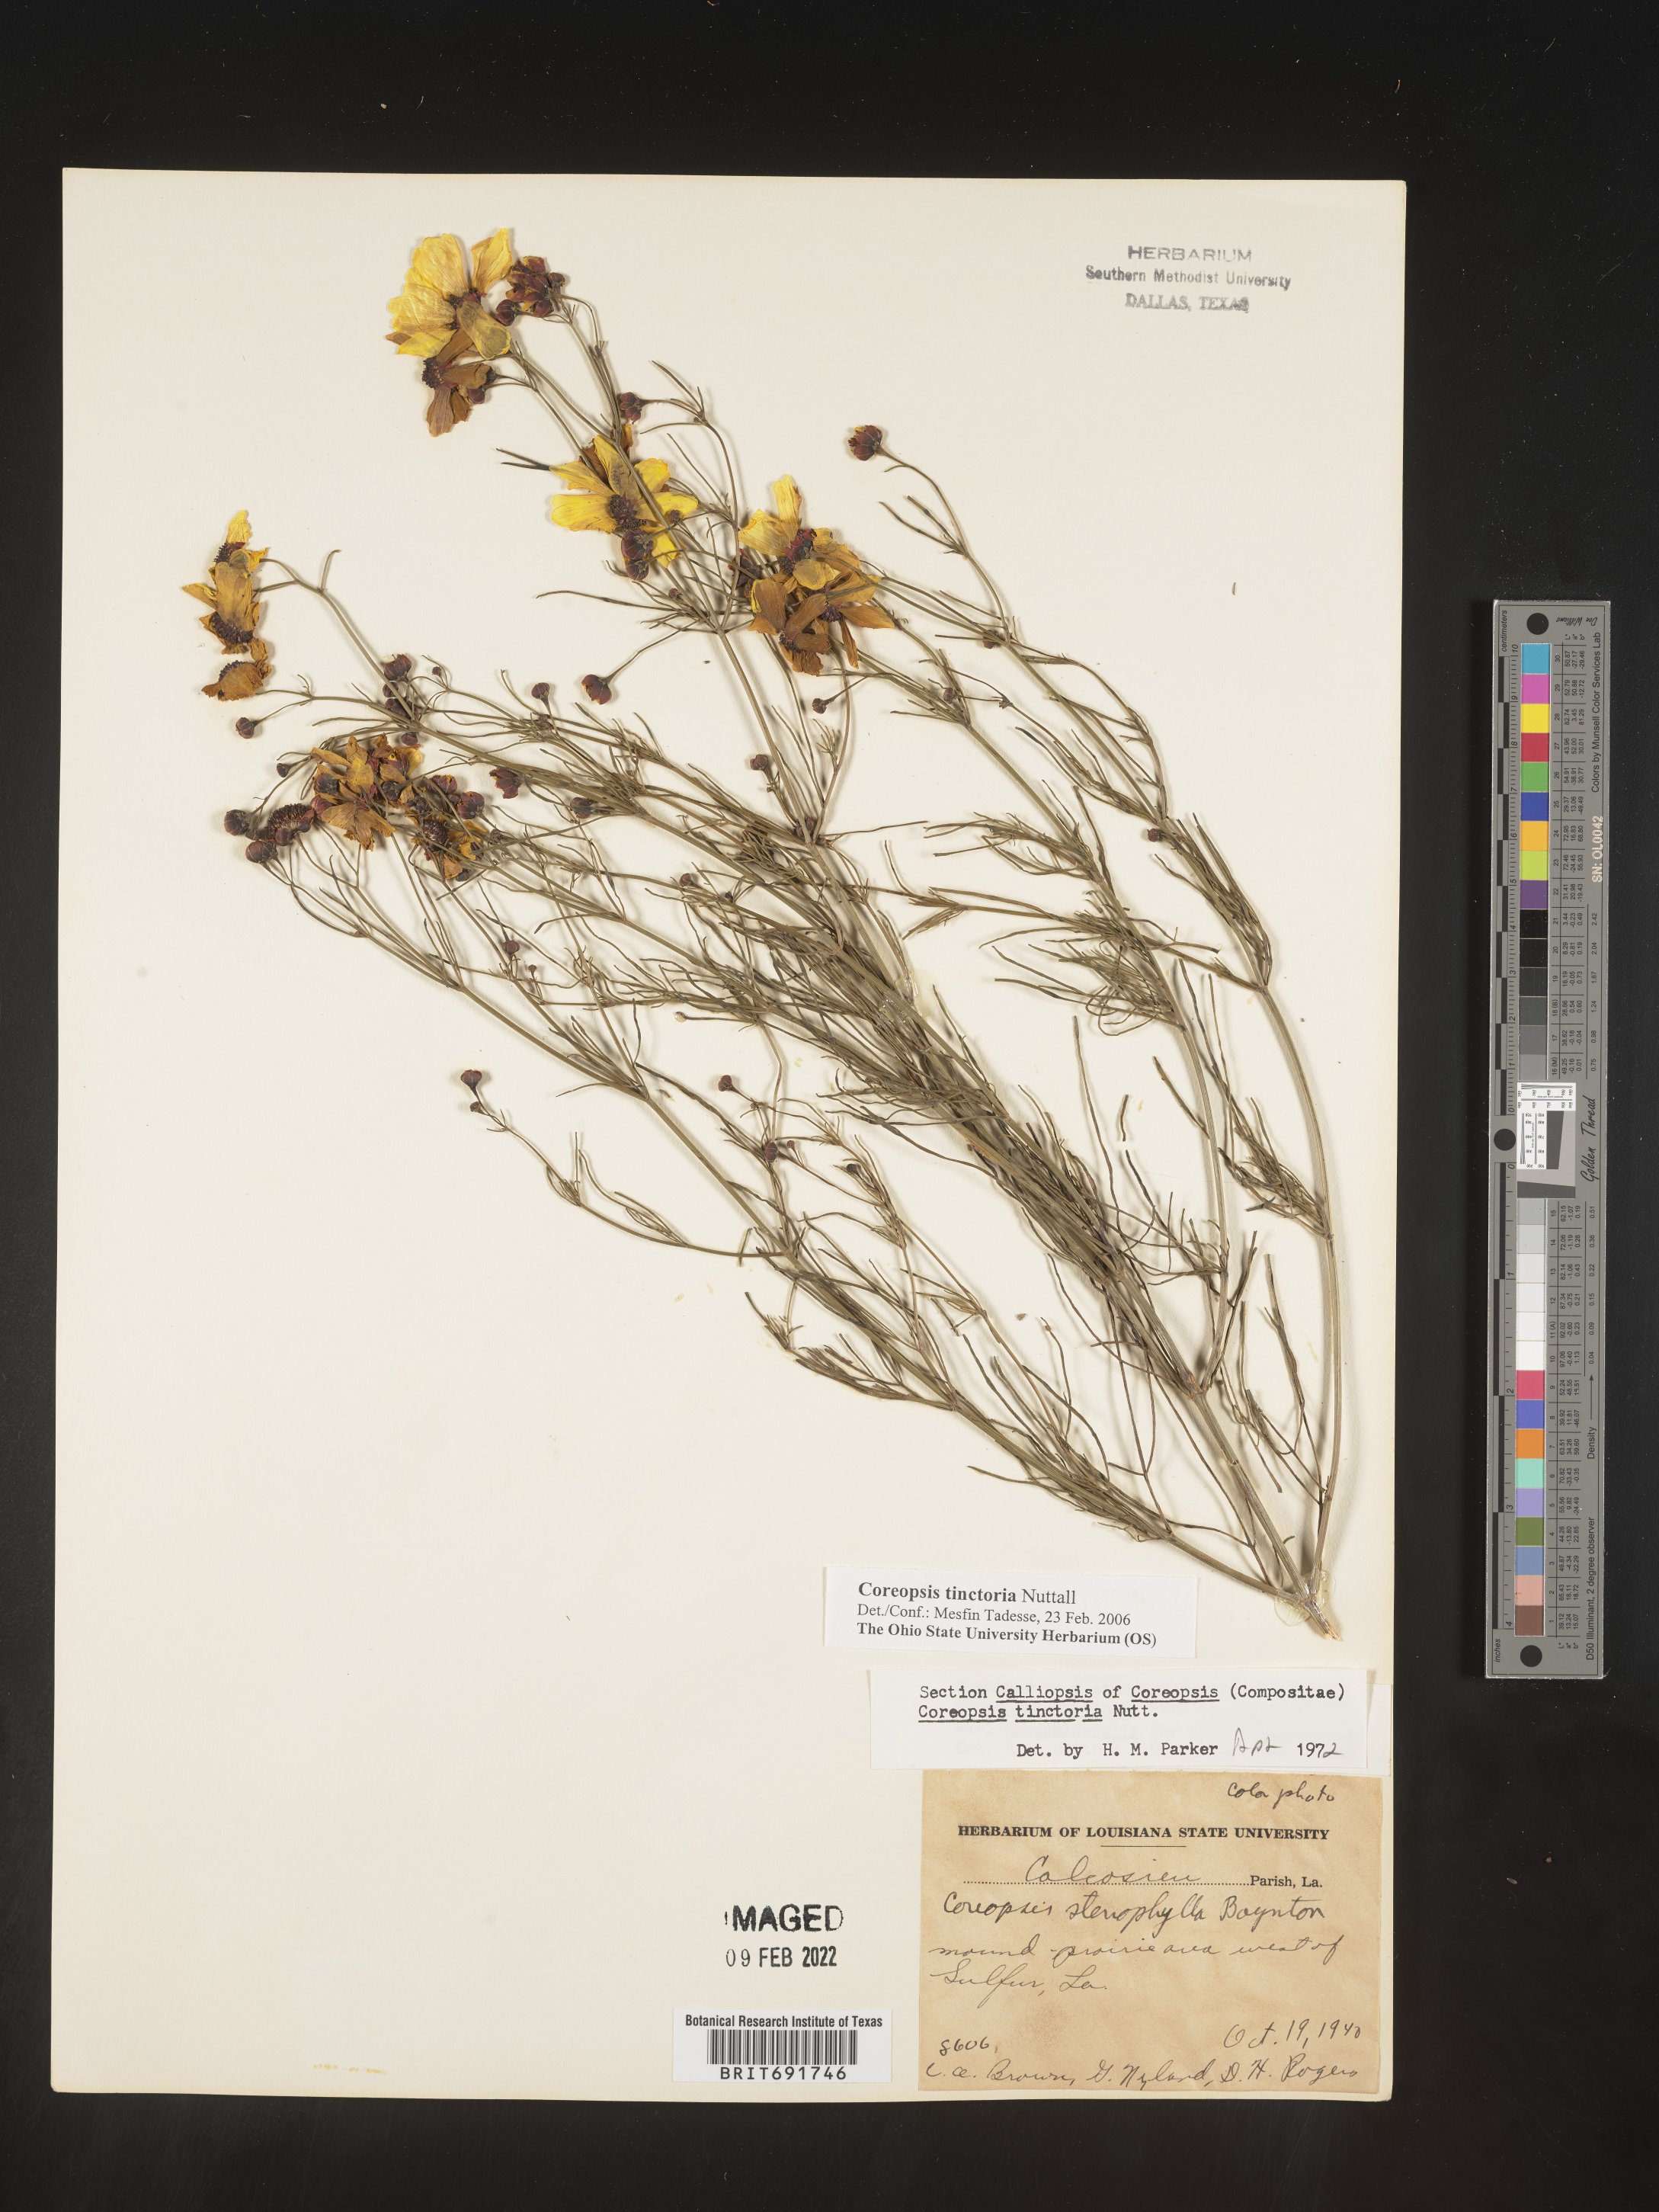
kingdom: Plantae
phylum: Tracheophyta
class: Magnoliopsida
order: Asterales
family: Asteraceae
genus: Coreopsis
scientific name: Coreopsis tinctoria
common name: Garden tickseed
